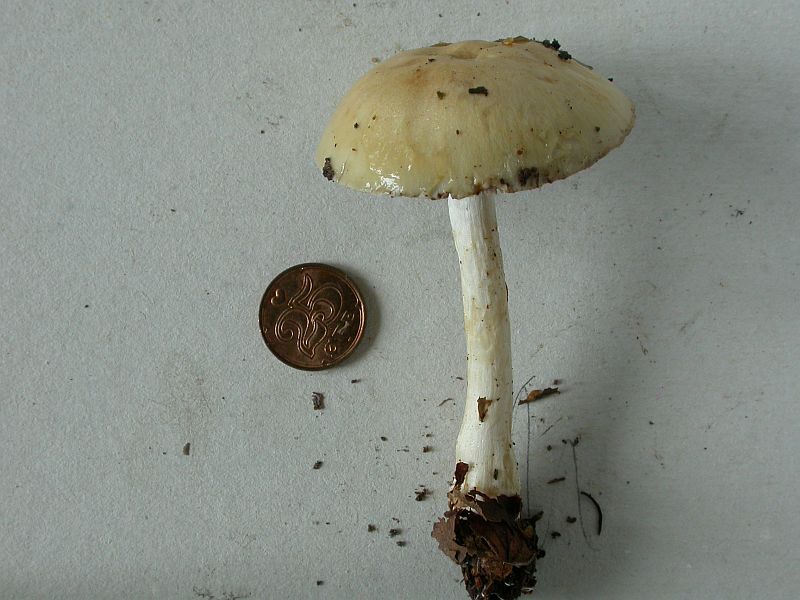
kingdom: Fungi
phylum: Basidiomycota
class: Agaricomycetes
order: Agaricales
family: Cortinariaceae
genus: Cortinarius
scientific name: Cortinarius delibutus
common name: gul slørhat
